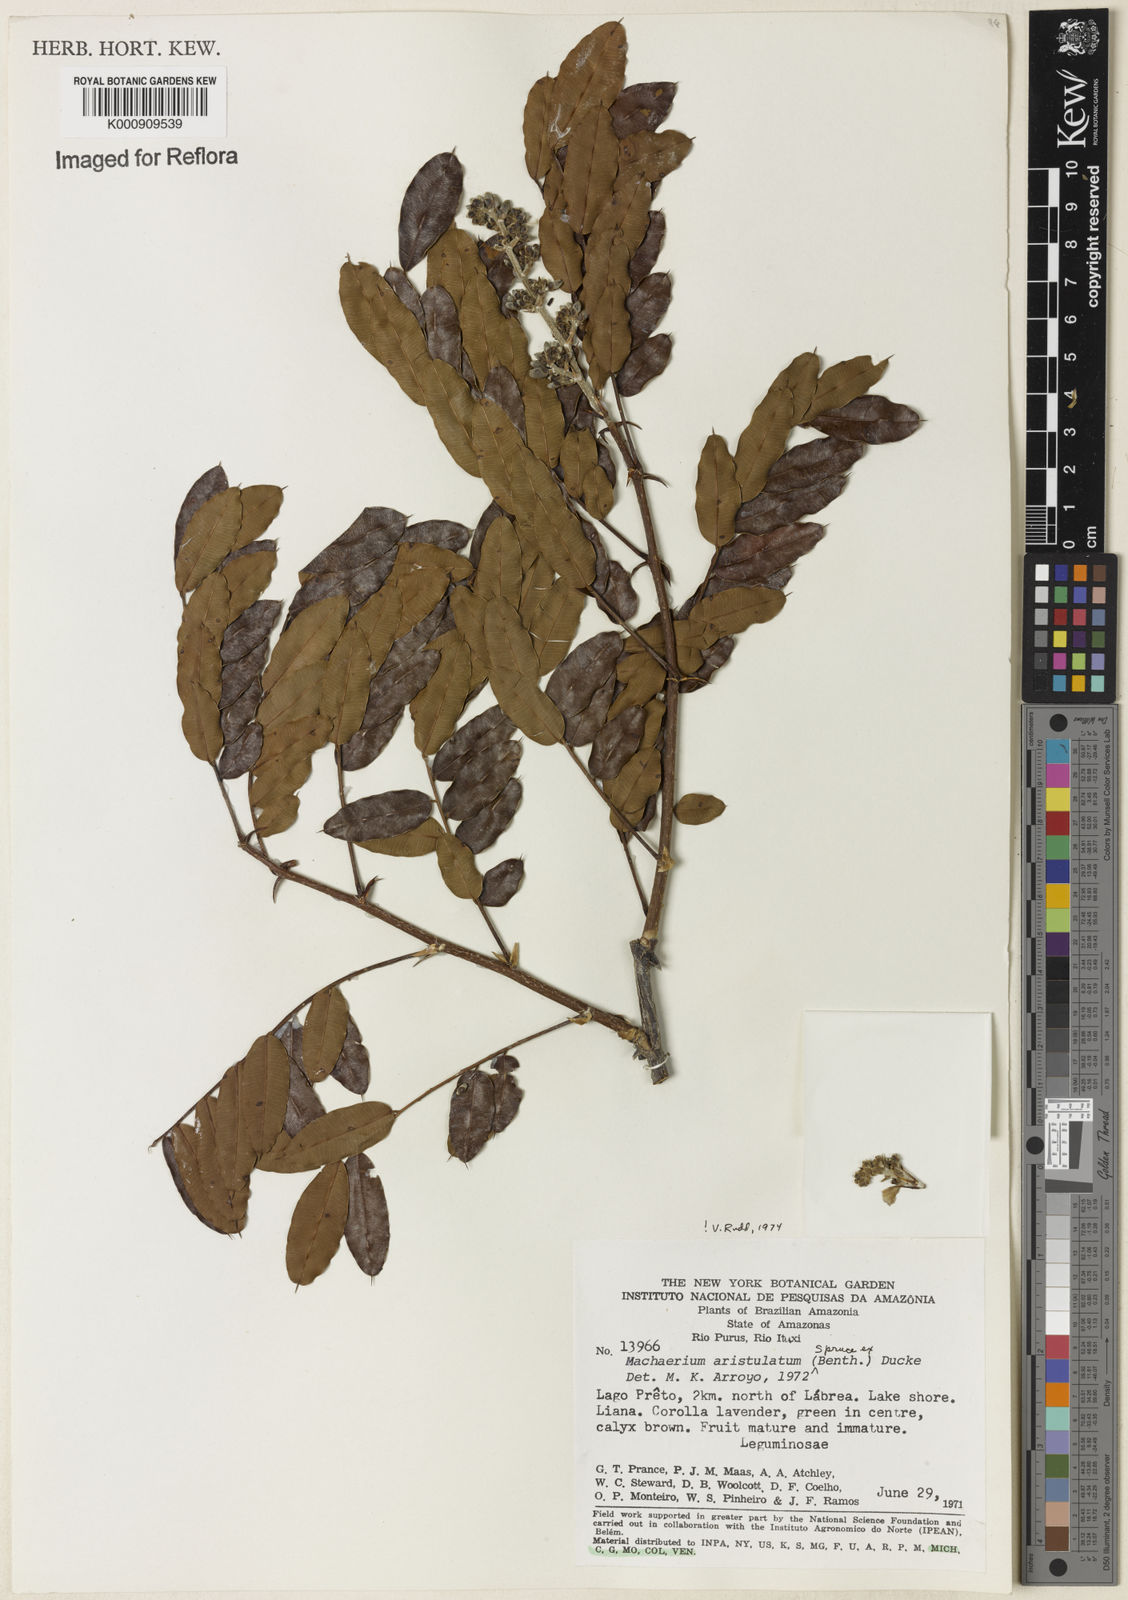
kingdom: Plantae
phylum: Tracheophyta
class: Magnoliopsida
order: Fabales
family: Fabaceae
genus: Machaerium
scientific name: Machaerium aristulatum
